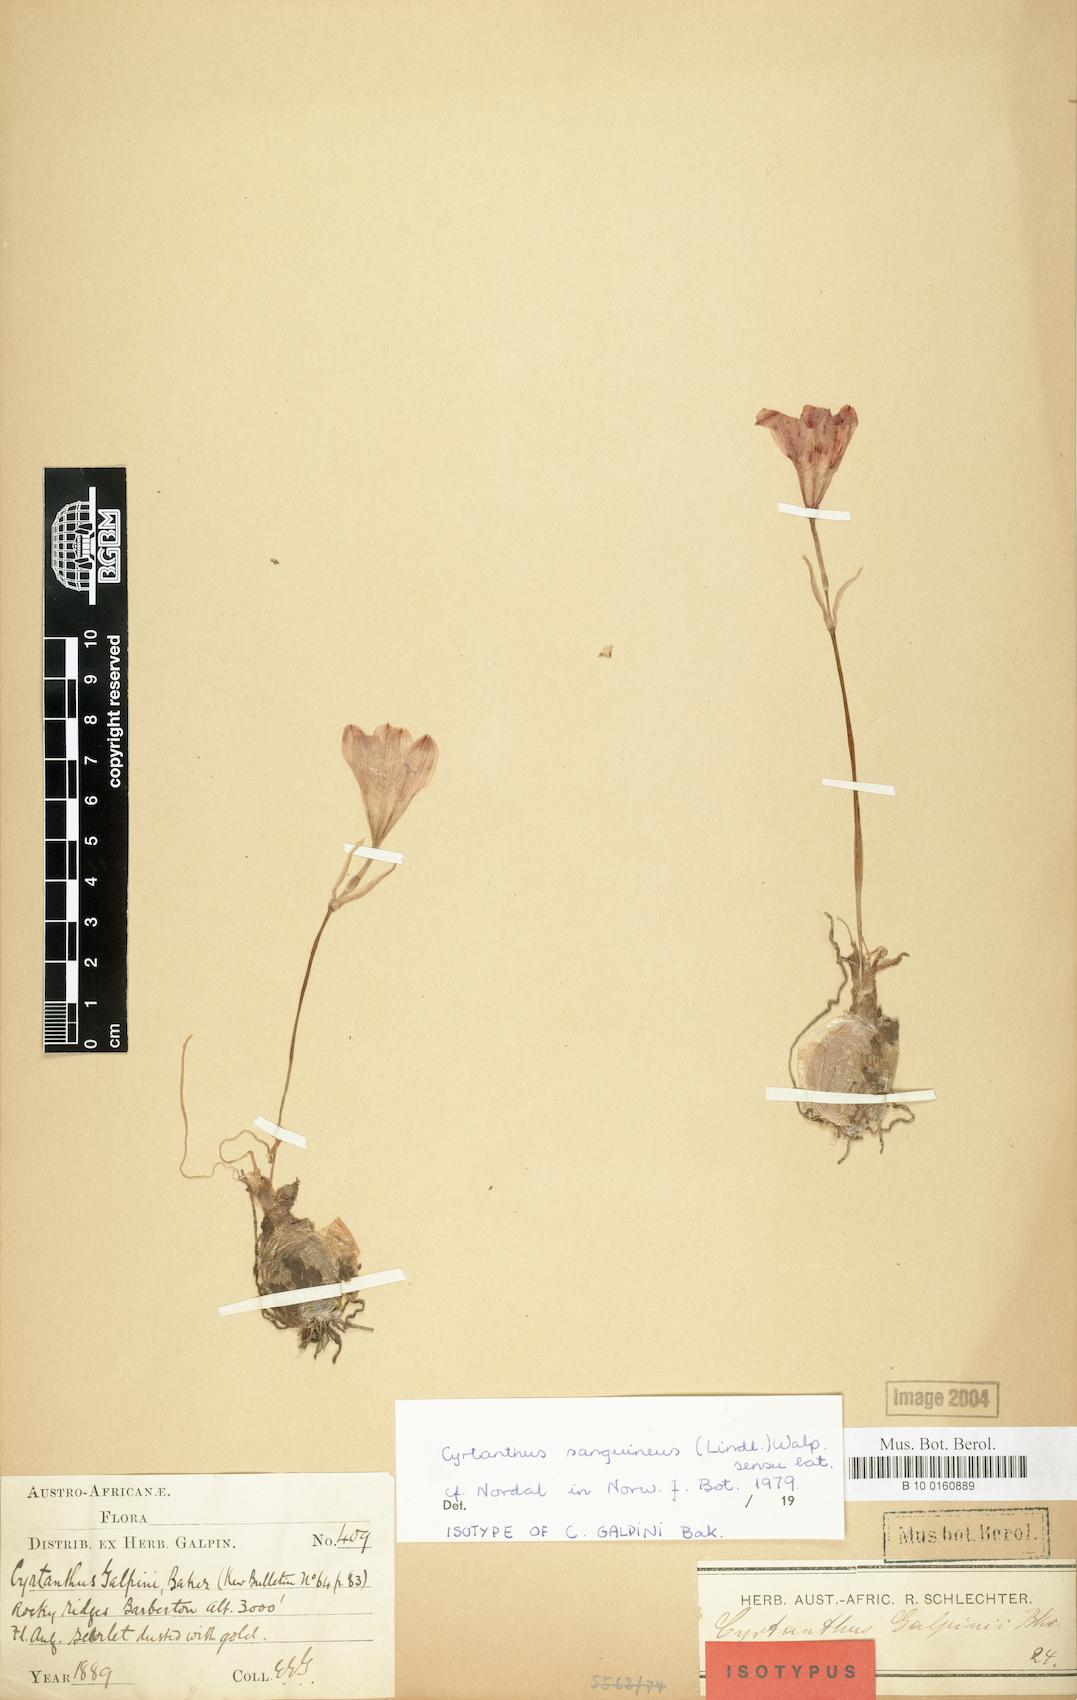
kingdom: Plantae
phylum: Tracheophyta
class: Liliopsida
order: Asparagales
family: Amaryllidaceae
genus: Cyrtanthus
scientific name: Cyrtanthus sanguineus
